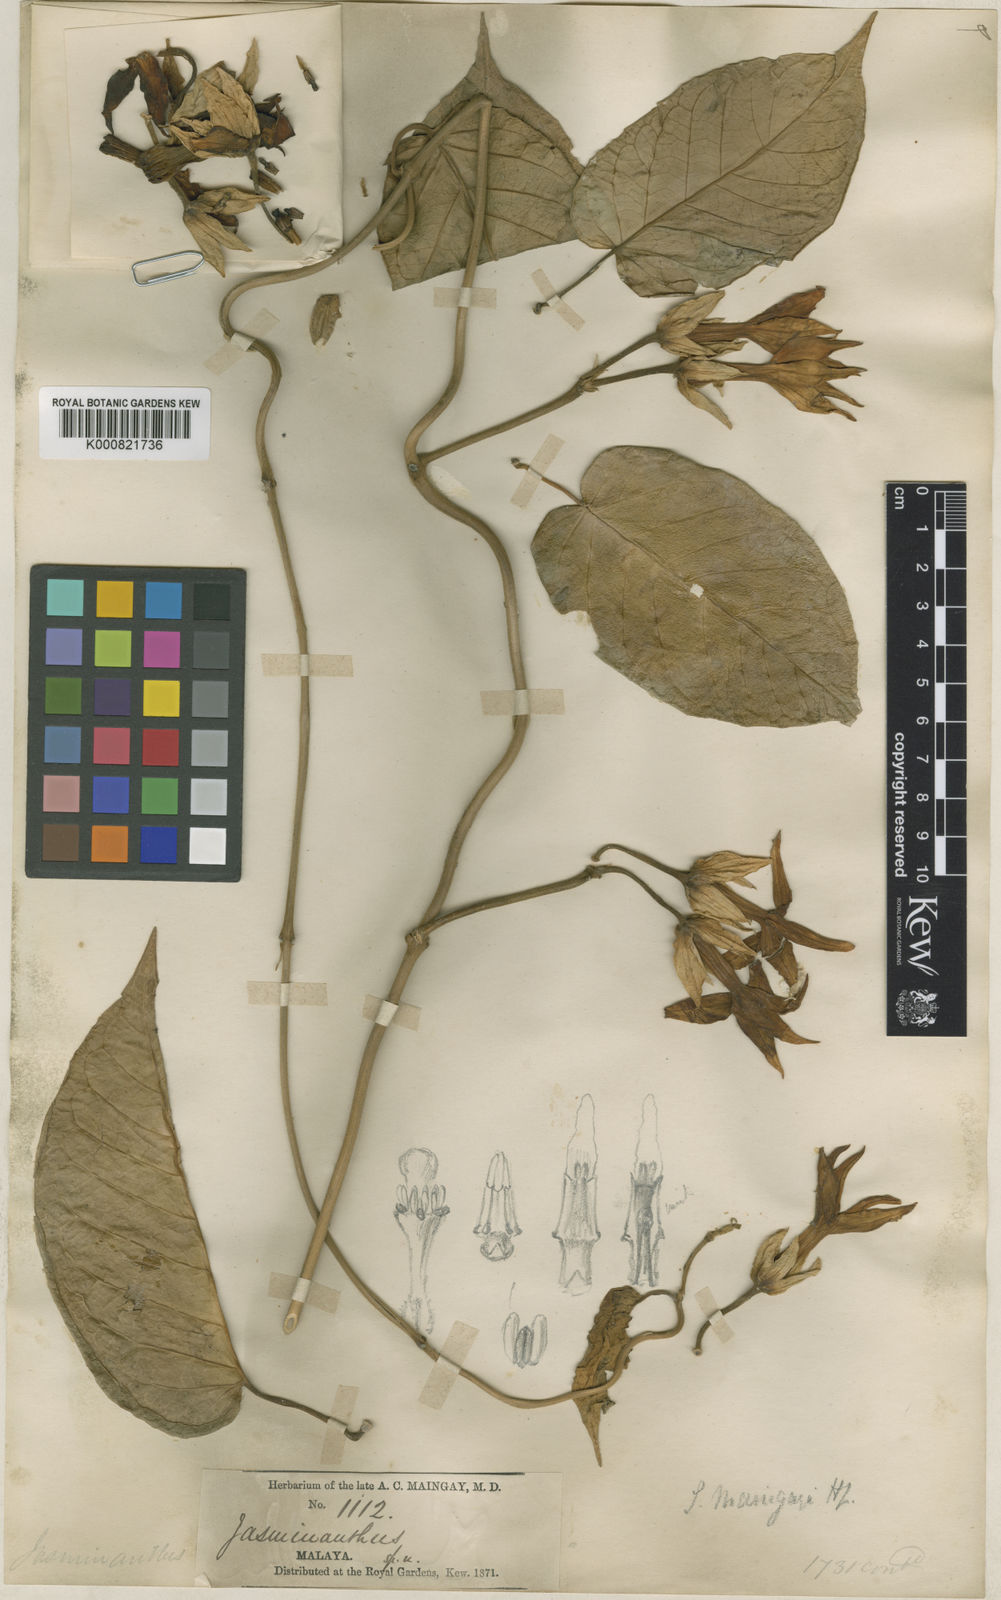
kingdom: Plantae
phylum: Tracheophyta
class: Magnoliopsida
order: Gentianales
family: Apocynaceae
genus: Jasminanthes
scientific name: Jasminanthes maingayi
